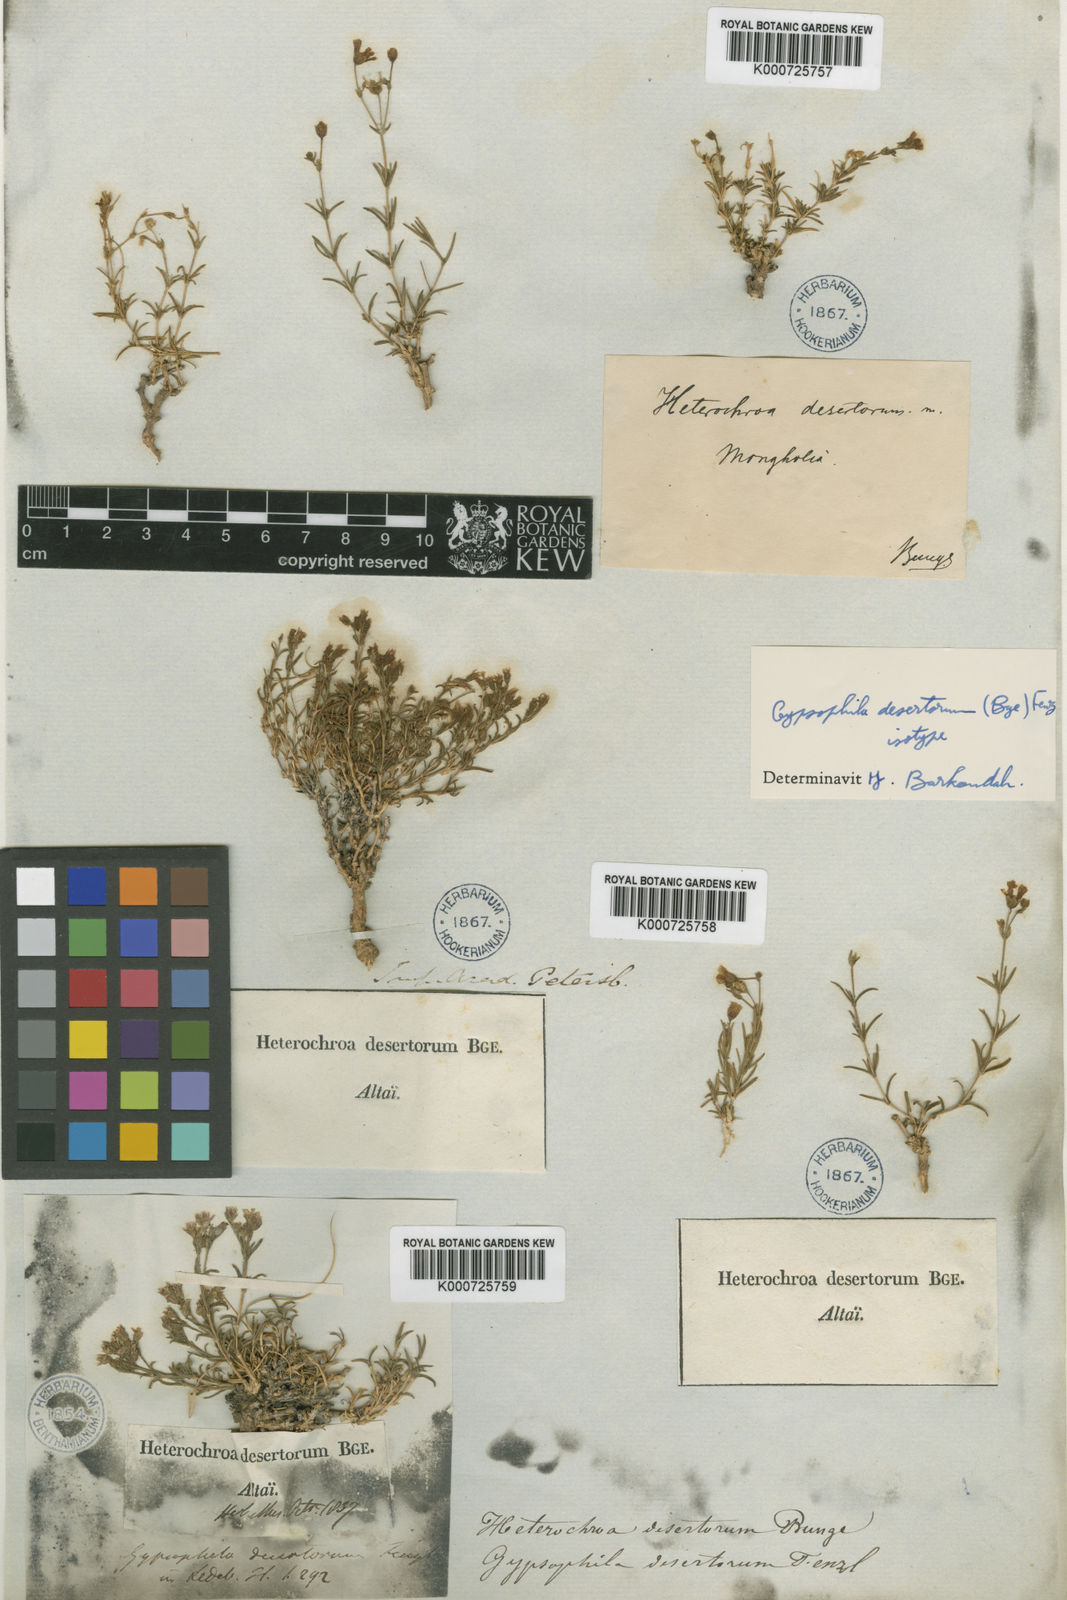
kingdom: Plantae
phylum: Tracheophyta
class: Magnoliopsida
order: Caryophyllales
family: Caryophyllaceae
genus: Heterochroa
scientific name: Heterochroa desertorum
